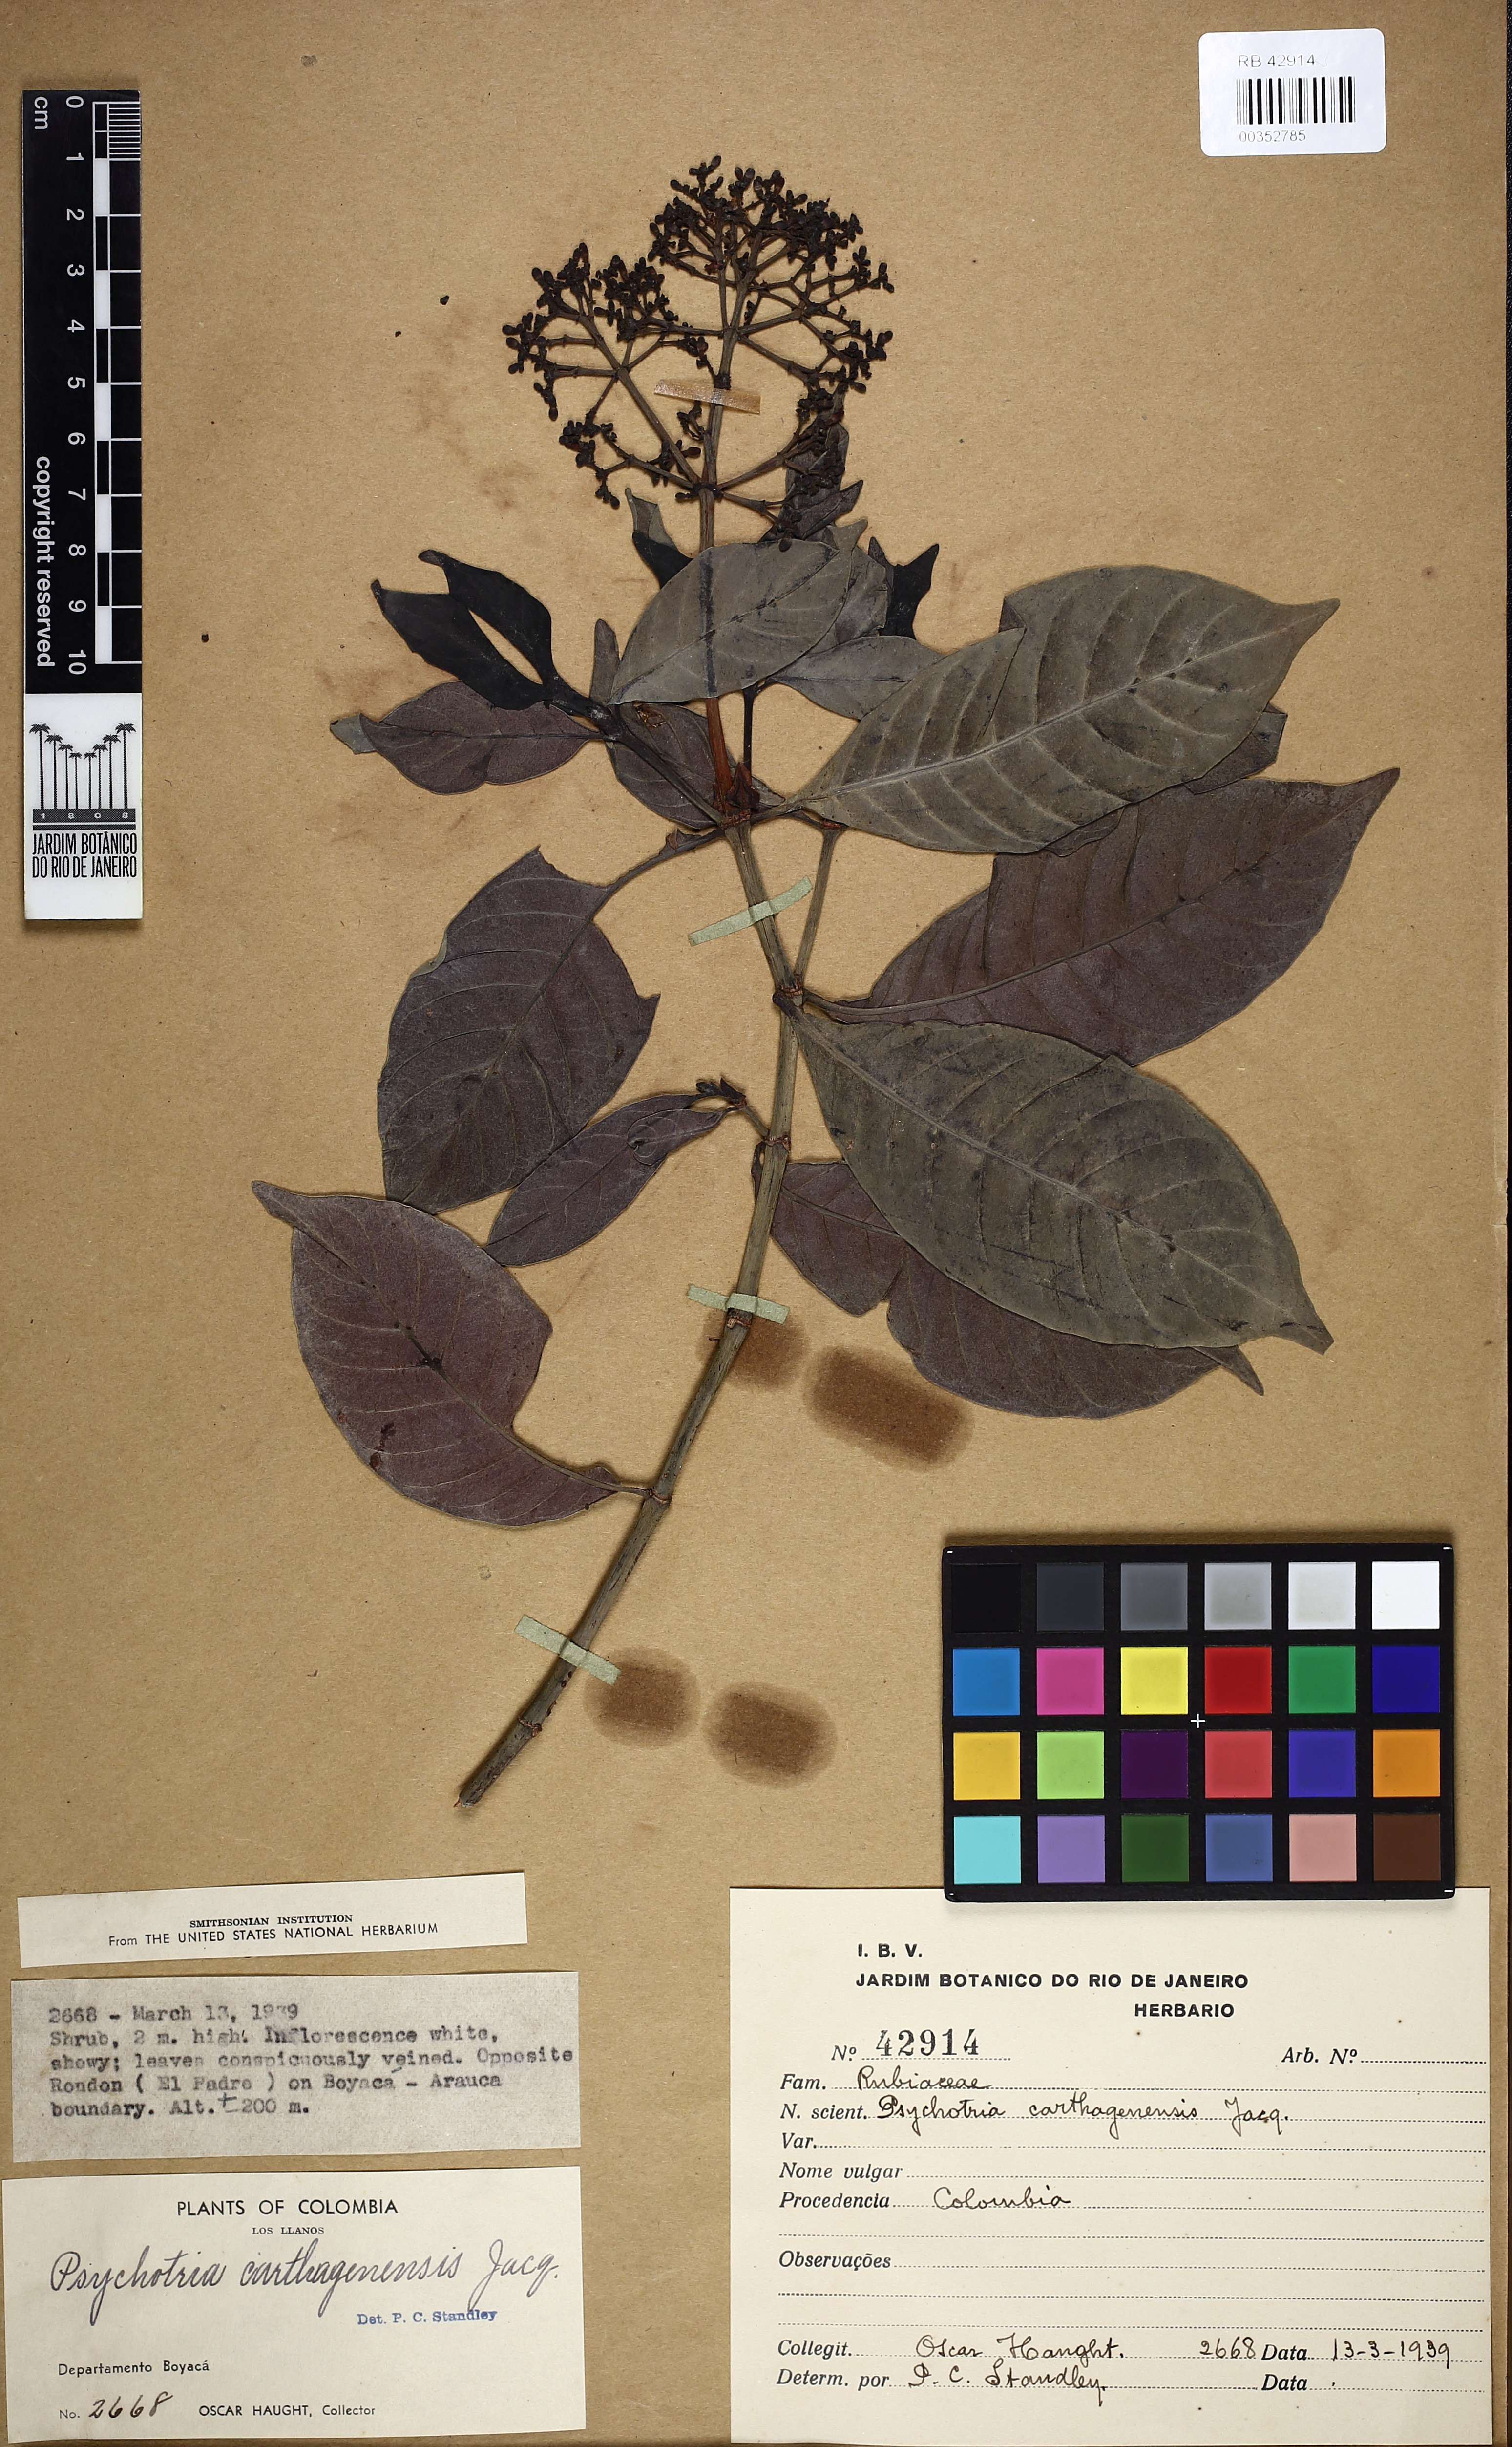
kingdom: Plantae
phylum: Tracheophyta
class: Magnoliopsida
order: Gentianales
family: Rubiaceae
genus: Psychotria
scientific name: Psychotria carthagenensis
